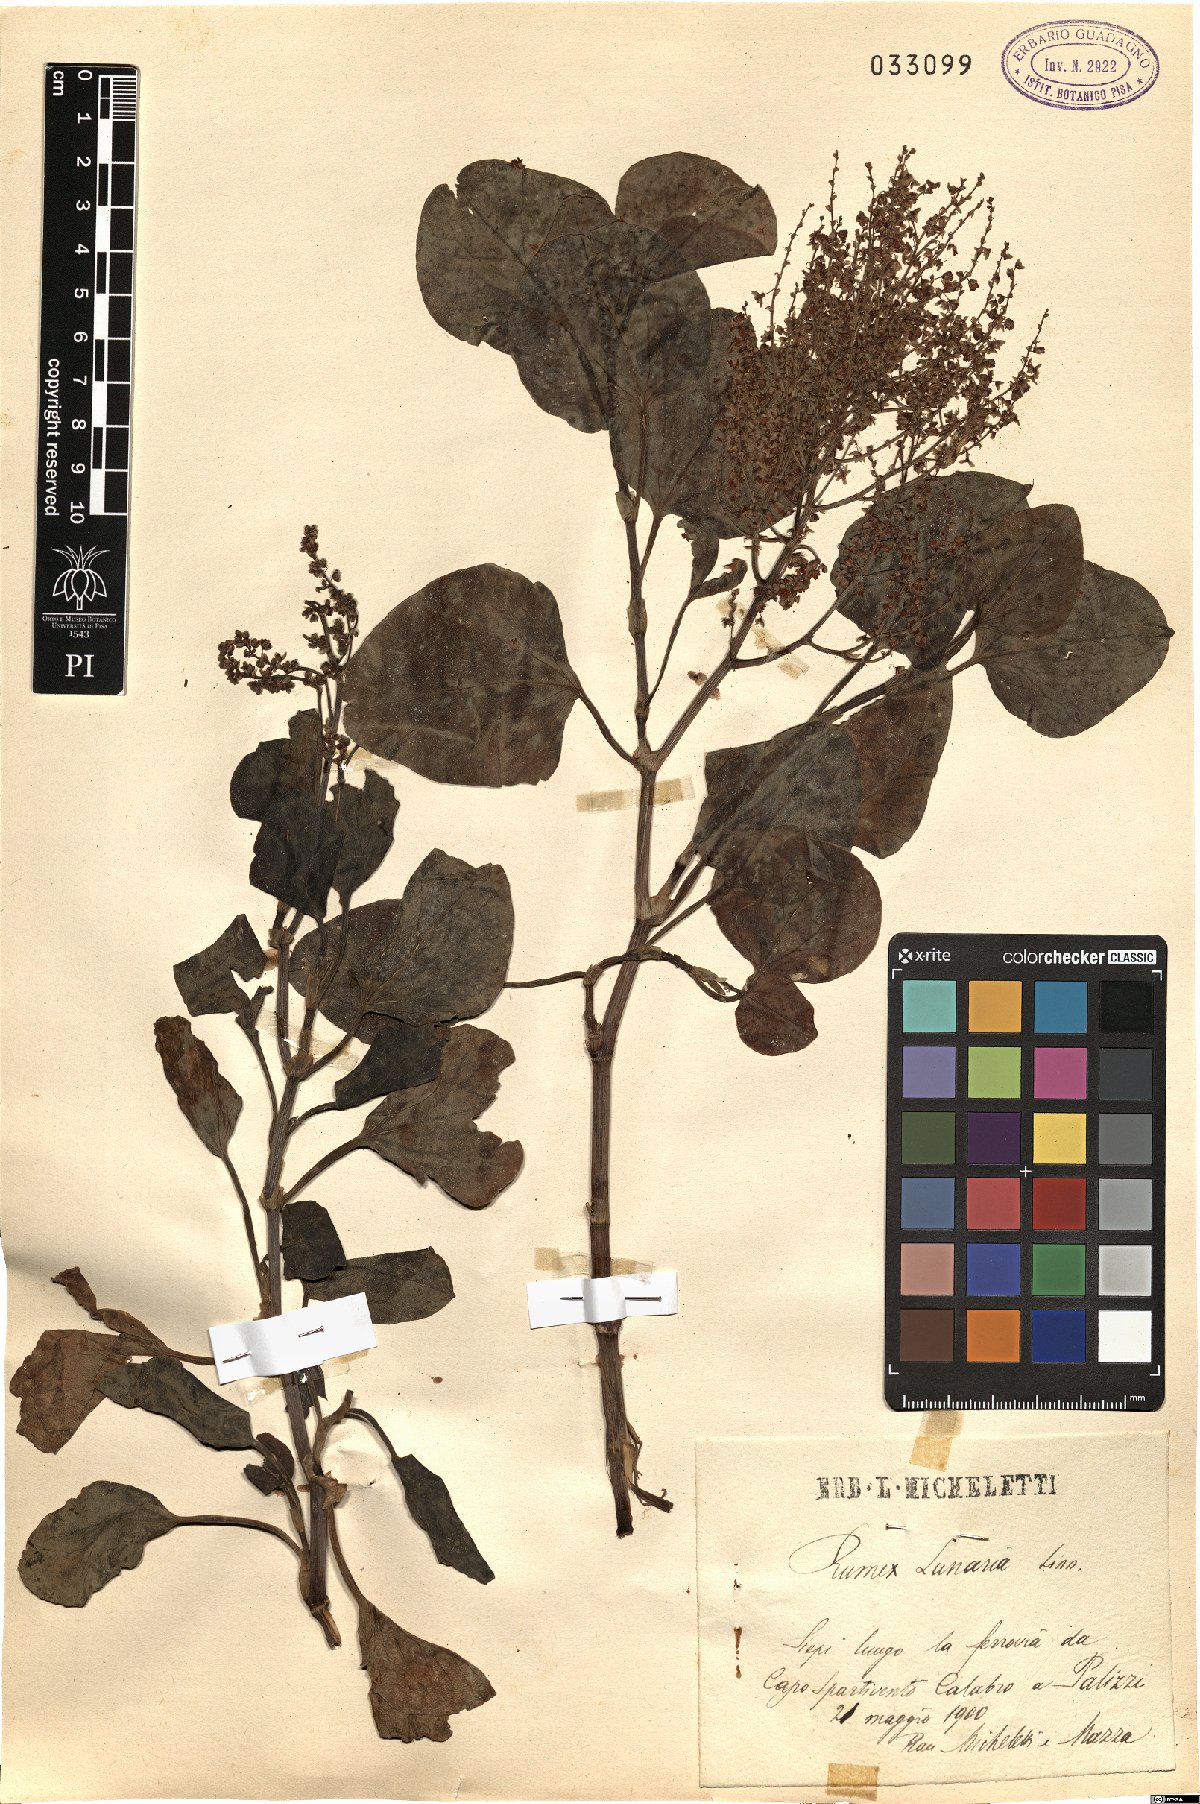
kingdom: Plantae
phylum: Tracheophyta
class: Magnoliopsida
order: Caryophyllales
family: Polygonaceae
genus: Rumex
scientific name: Rumex lunaria
